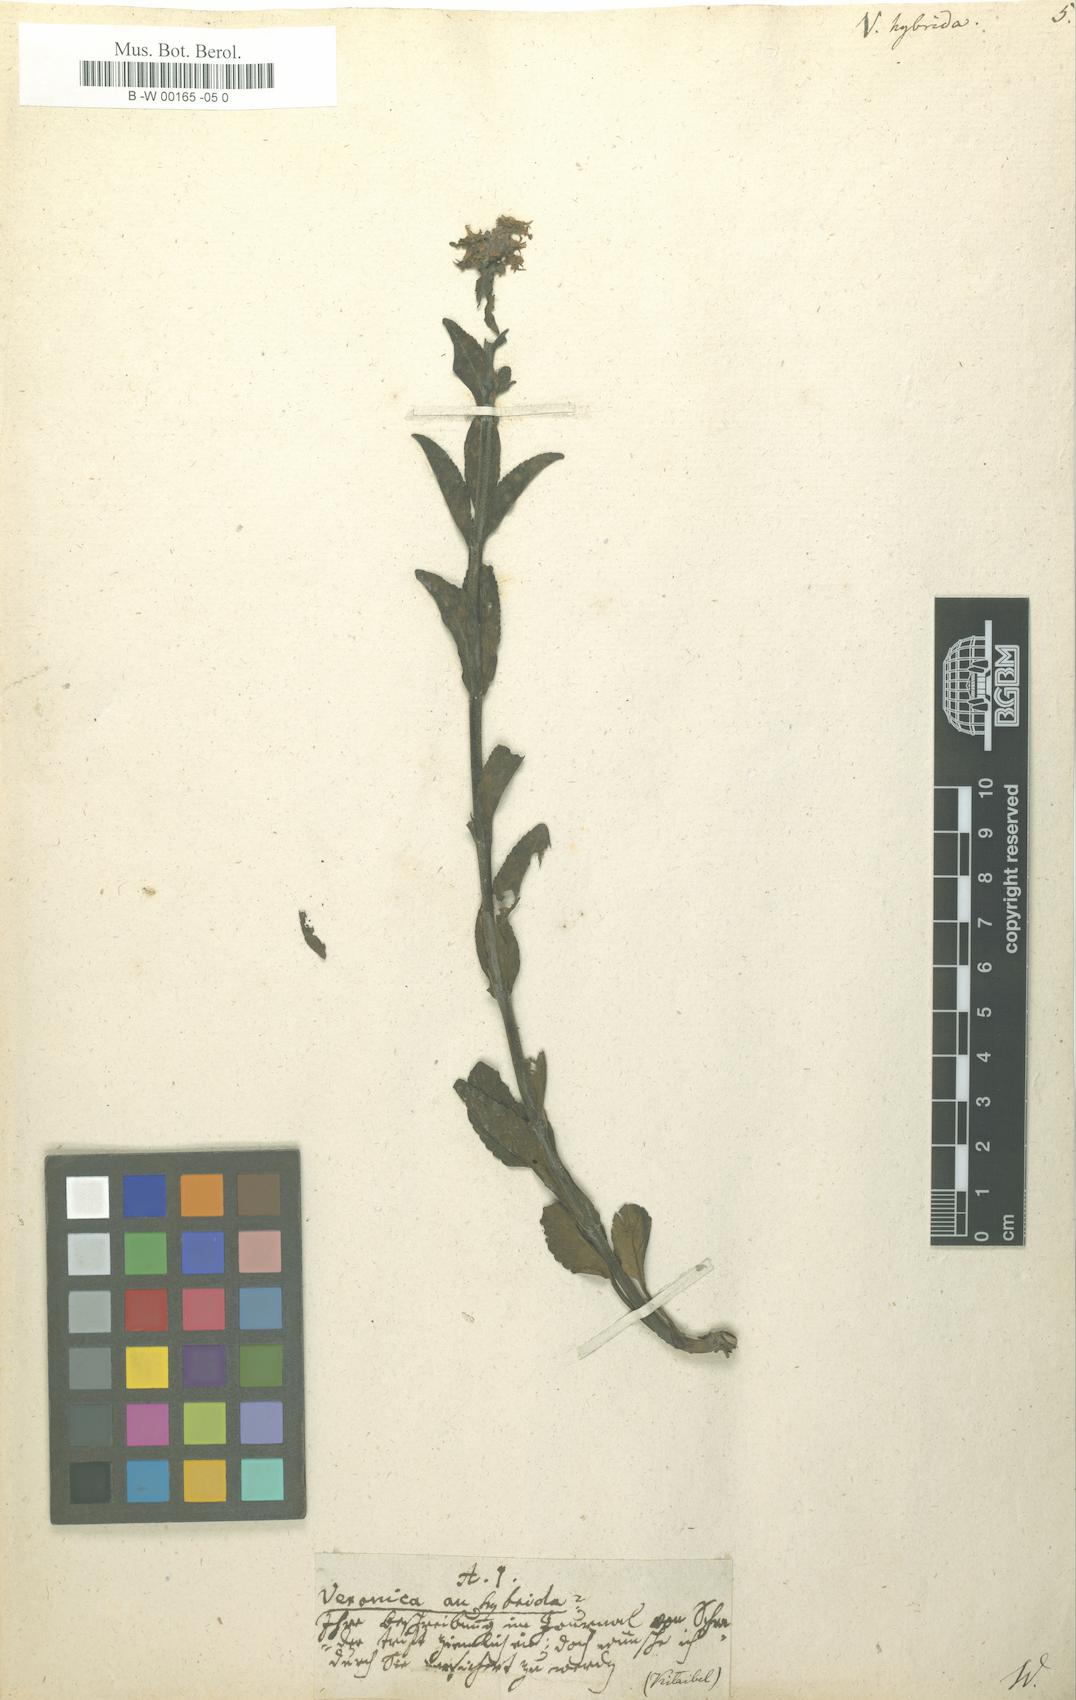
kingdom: Plantae
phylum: Tracheophyta
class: Magnoliopsida
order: Lamiales
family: Plantaginaceae
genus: Veronica
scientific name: Veronica spicata
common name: Spiked speedwell
